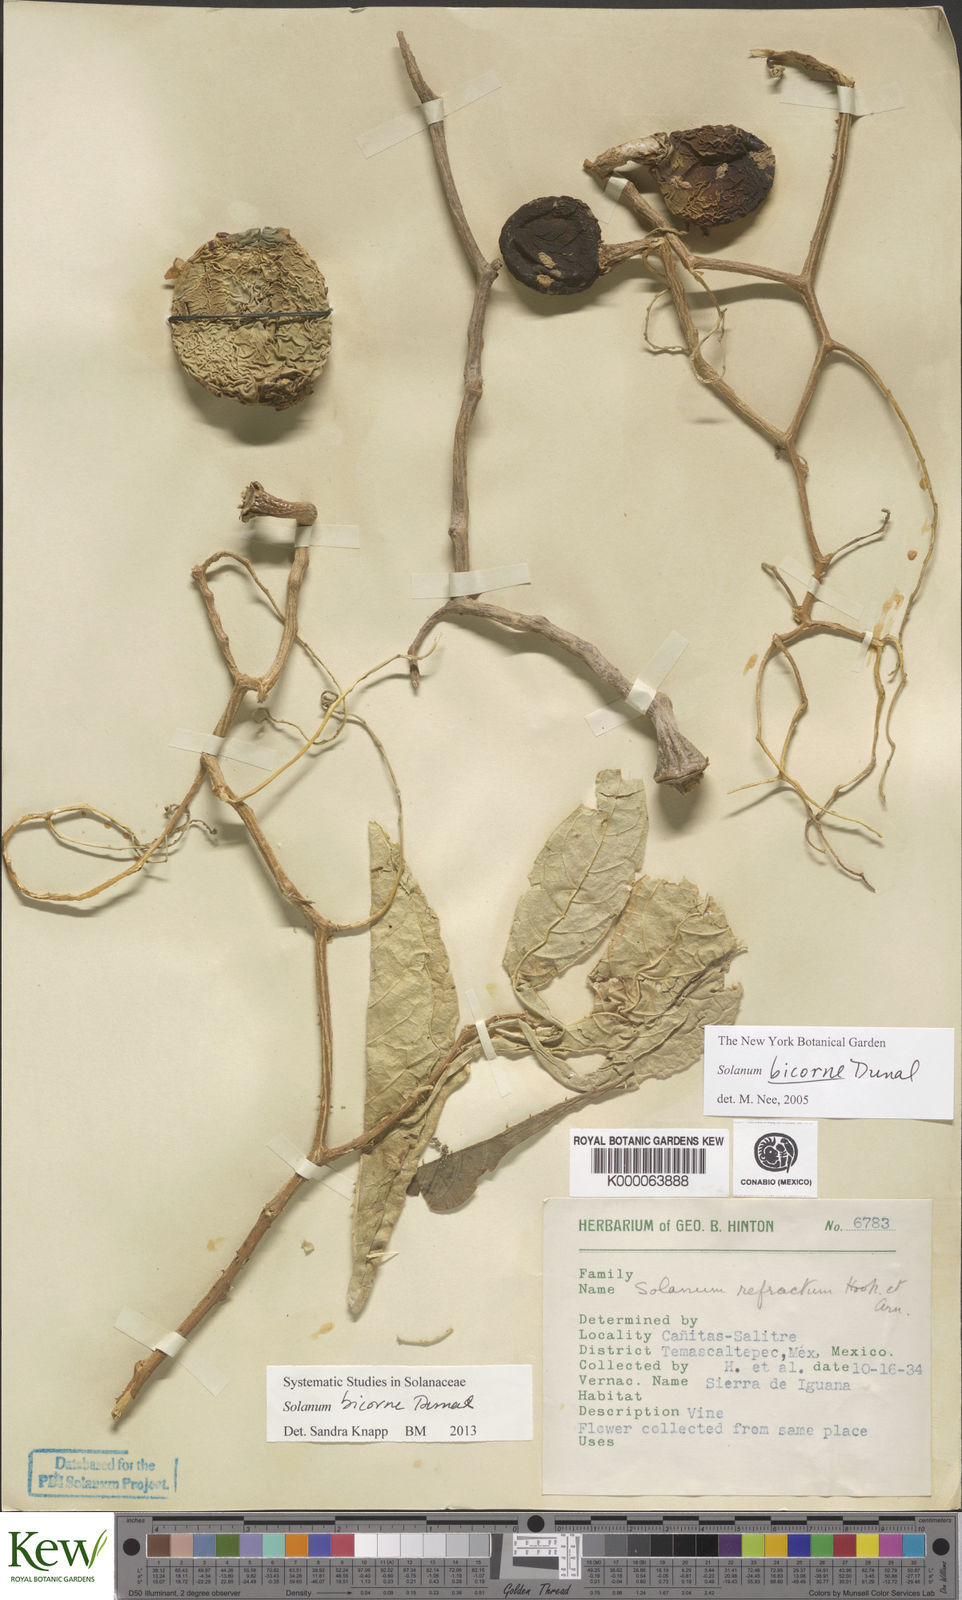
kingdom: Plantae
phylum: Tracheophyta
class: Magnoliopsida
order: Solanales
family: Solanaceae
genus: Solanum
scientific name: Solanum refractum
